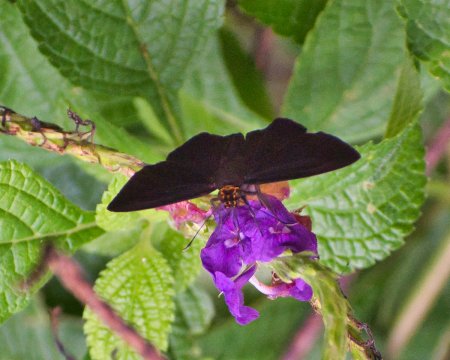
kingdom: Animalia
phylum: Arthropoda
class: Insecta
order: Lepidoptera
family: Hesperiidae
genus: Hyalothyrus
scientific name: Hyalothyrus neleus
